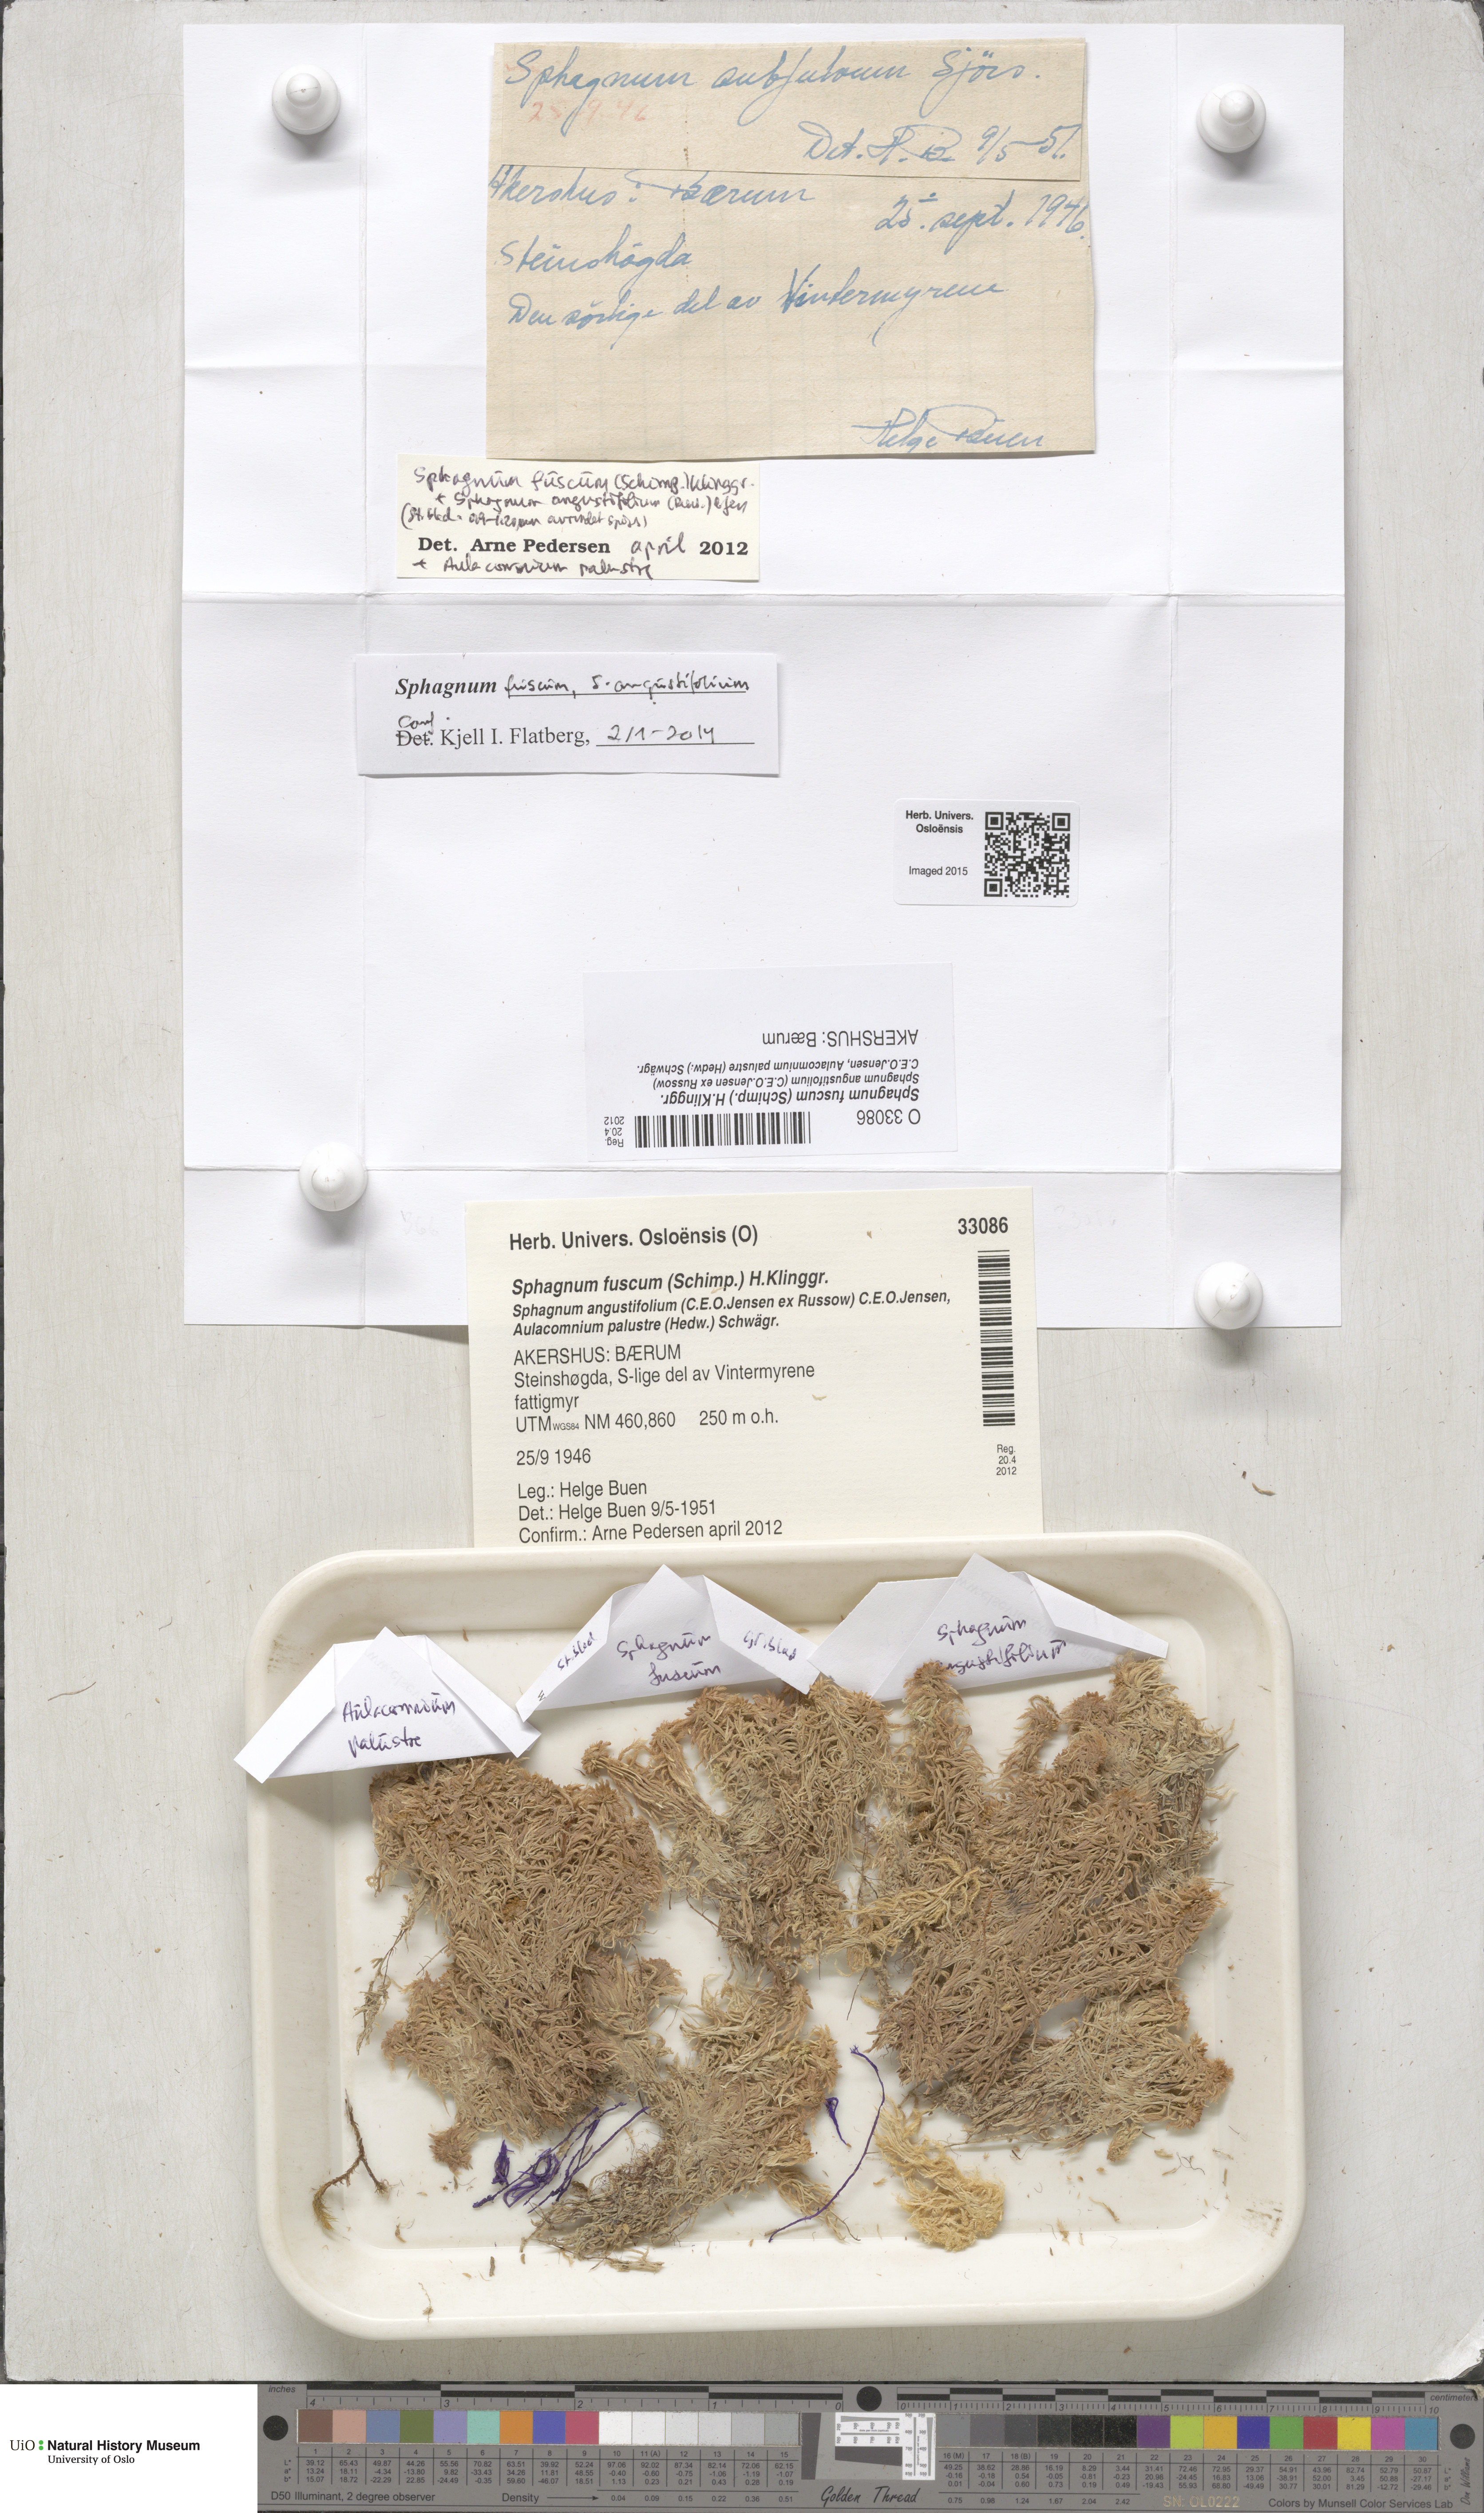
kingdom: Plantae
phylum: Bryophyta
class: Sphagnopsida
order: Sphagnales
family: Sphagnaceae
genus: Sphagnum
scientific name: Sphagnum fuscum
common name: Brown peat moss
